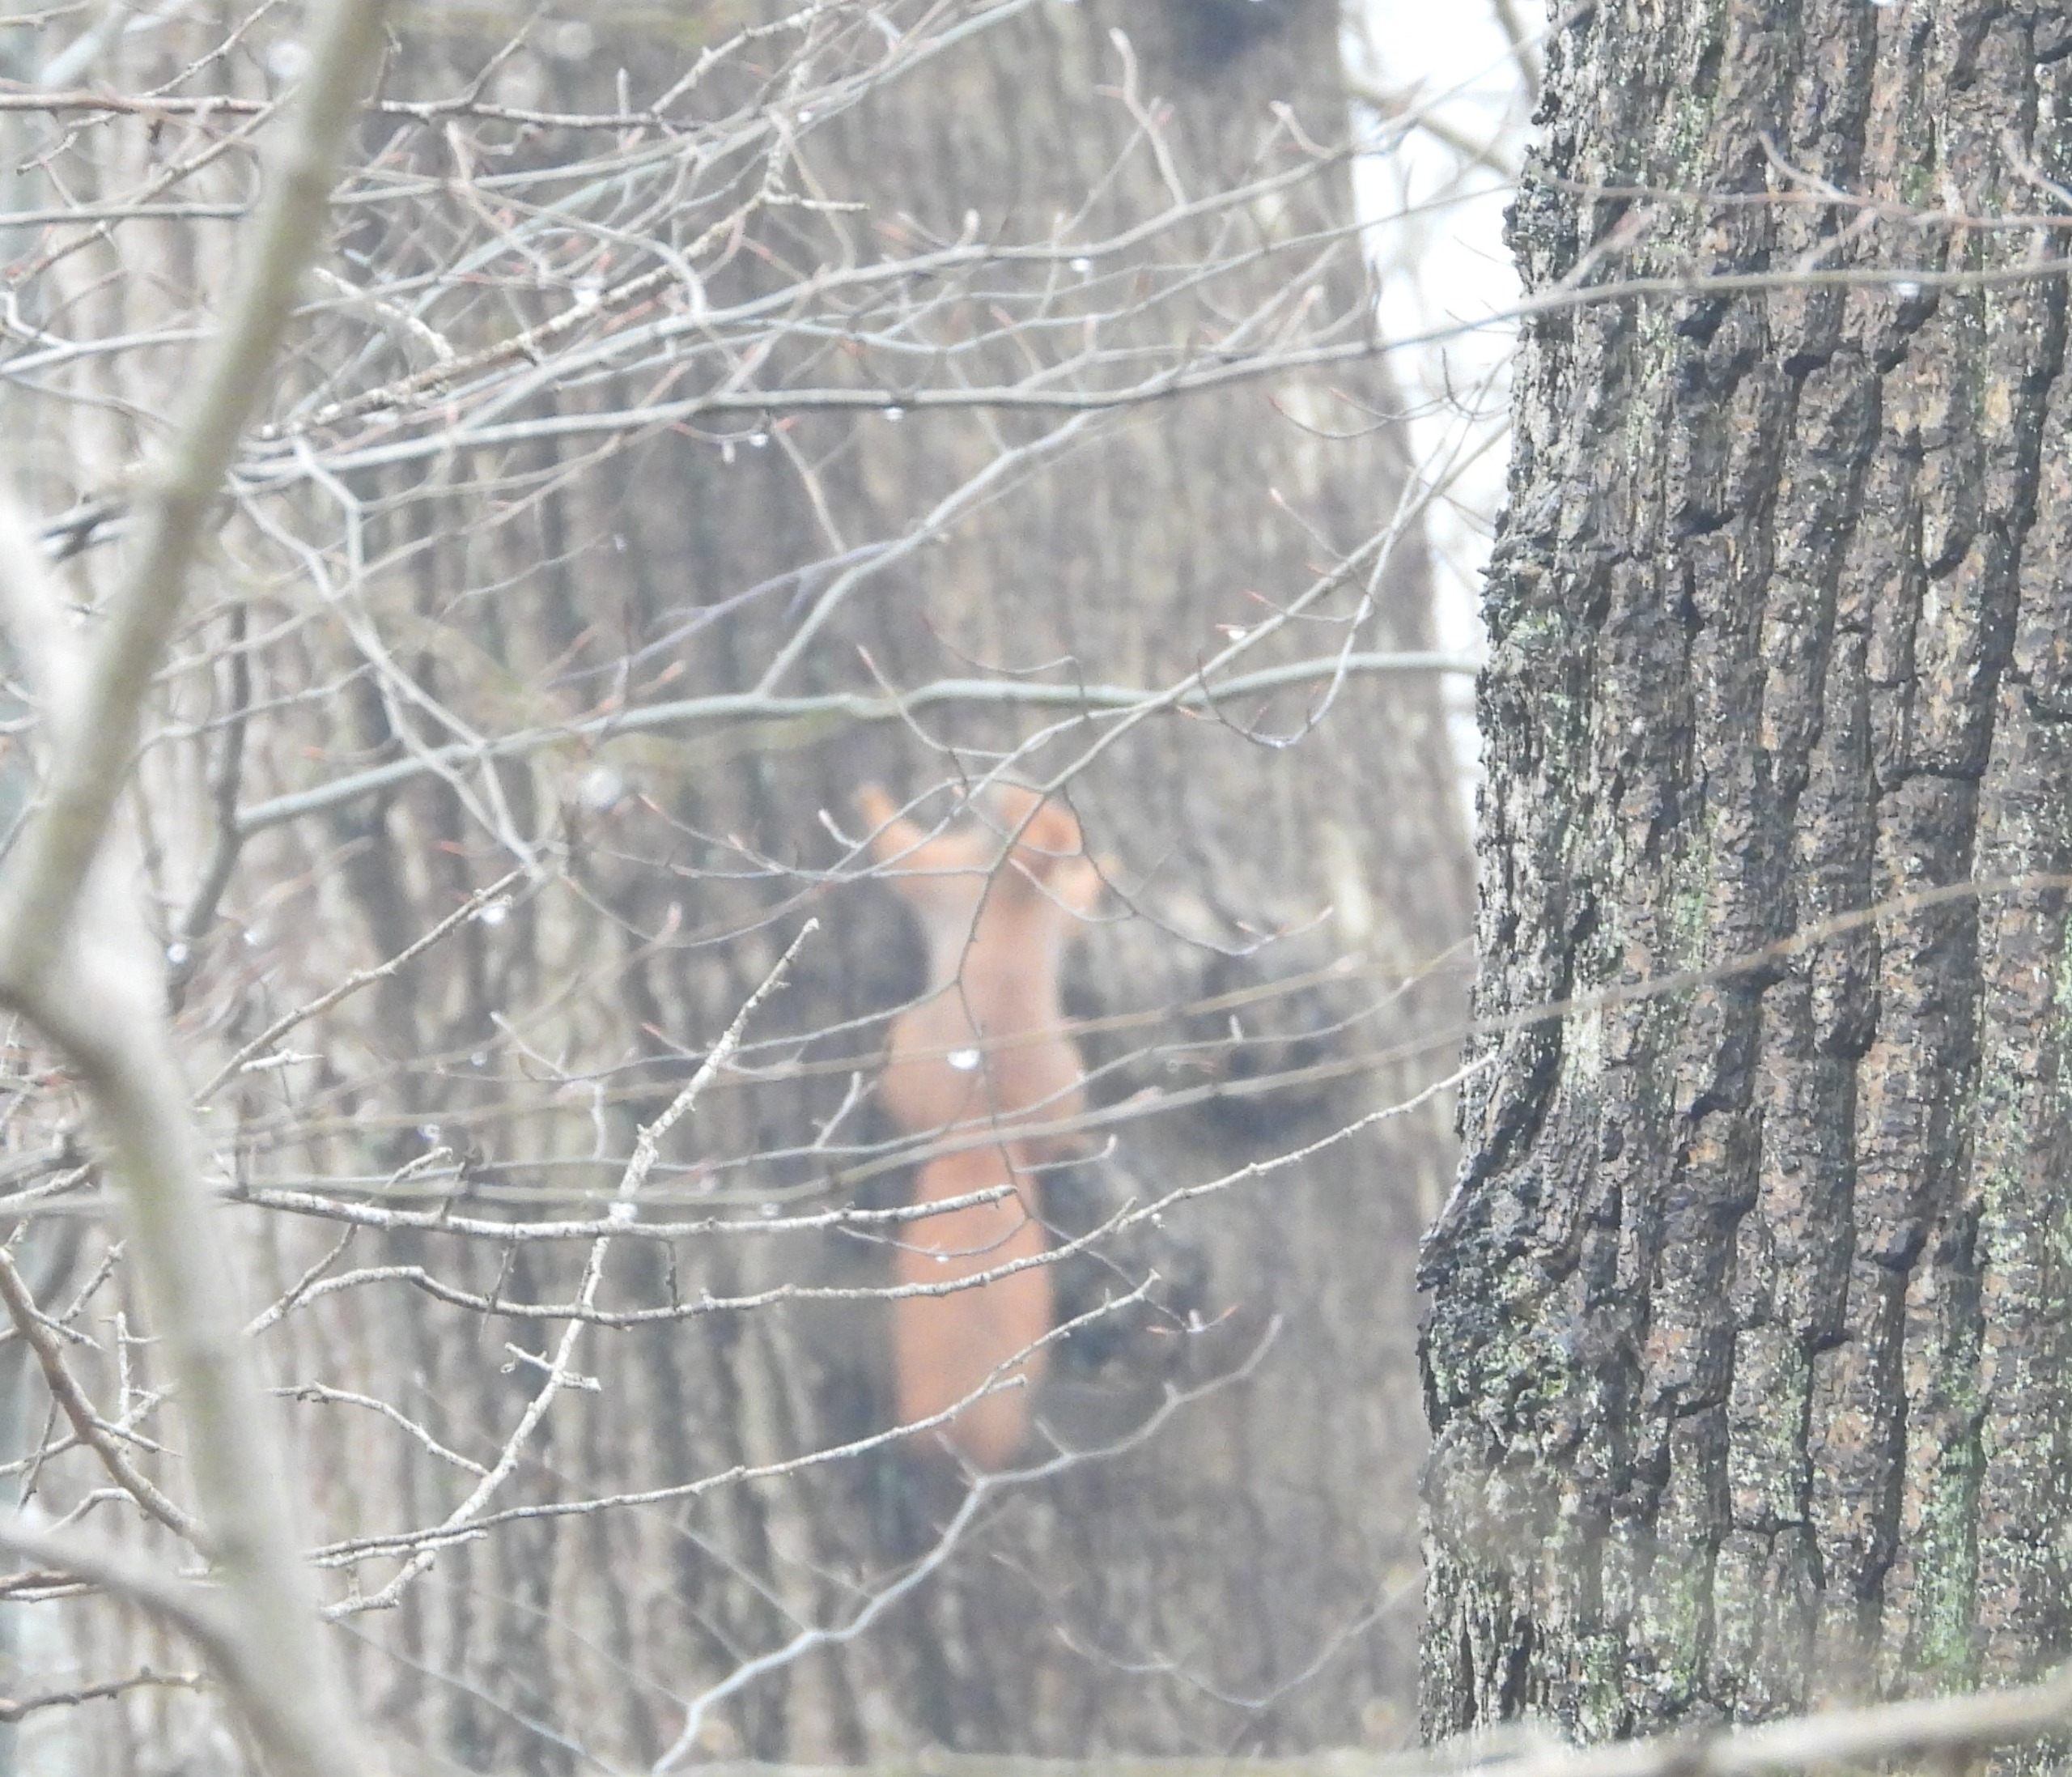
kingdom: Animalia
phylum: Chordata
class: Mammalia
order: Rodentia
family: Sciuridae
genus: Sciurus
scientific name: Sciurus vulgaris
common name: Egern
